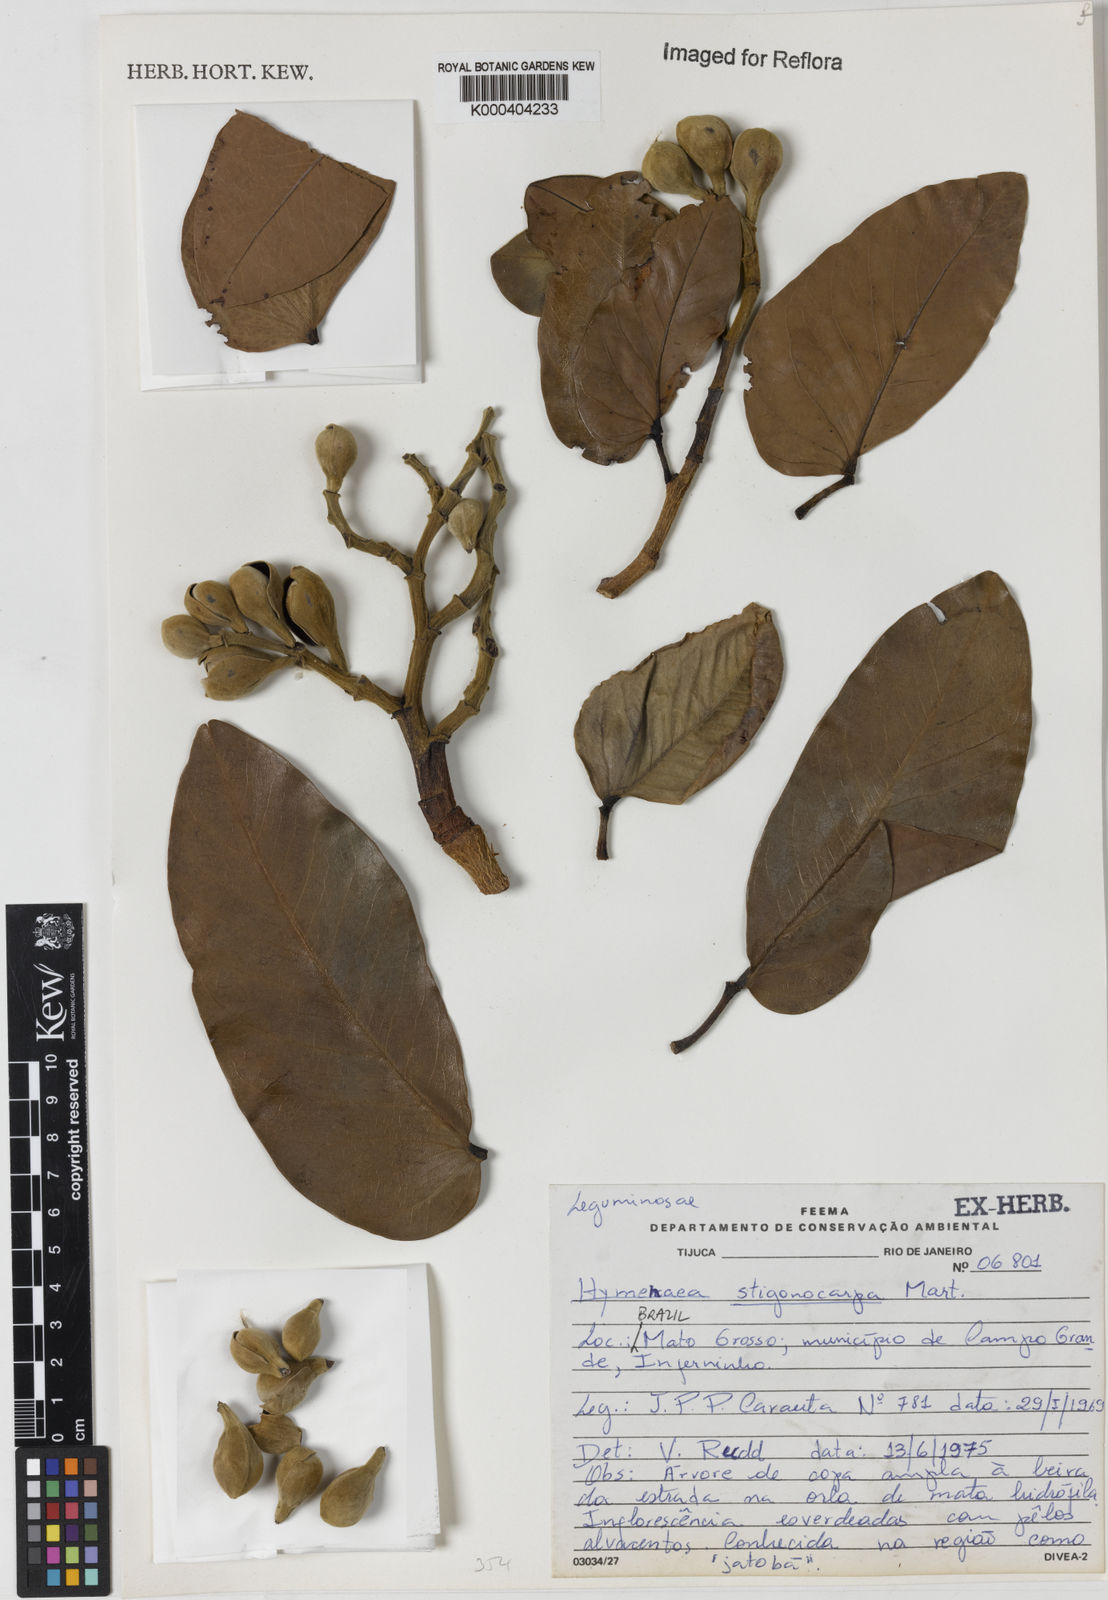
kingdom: Plantae
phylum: Tracheophyta
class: Magnoliopsida
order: Fabales
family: Fabaceae
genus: Hymenaea
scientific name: Hymenaea stigonocarpa
